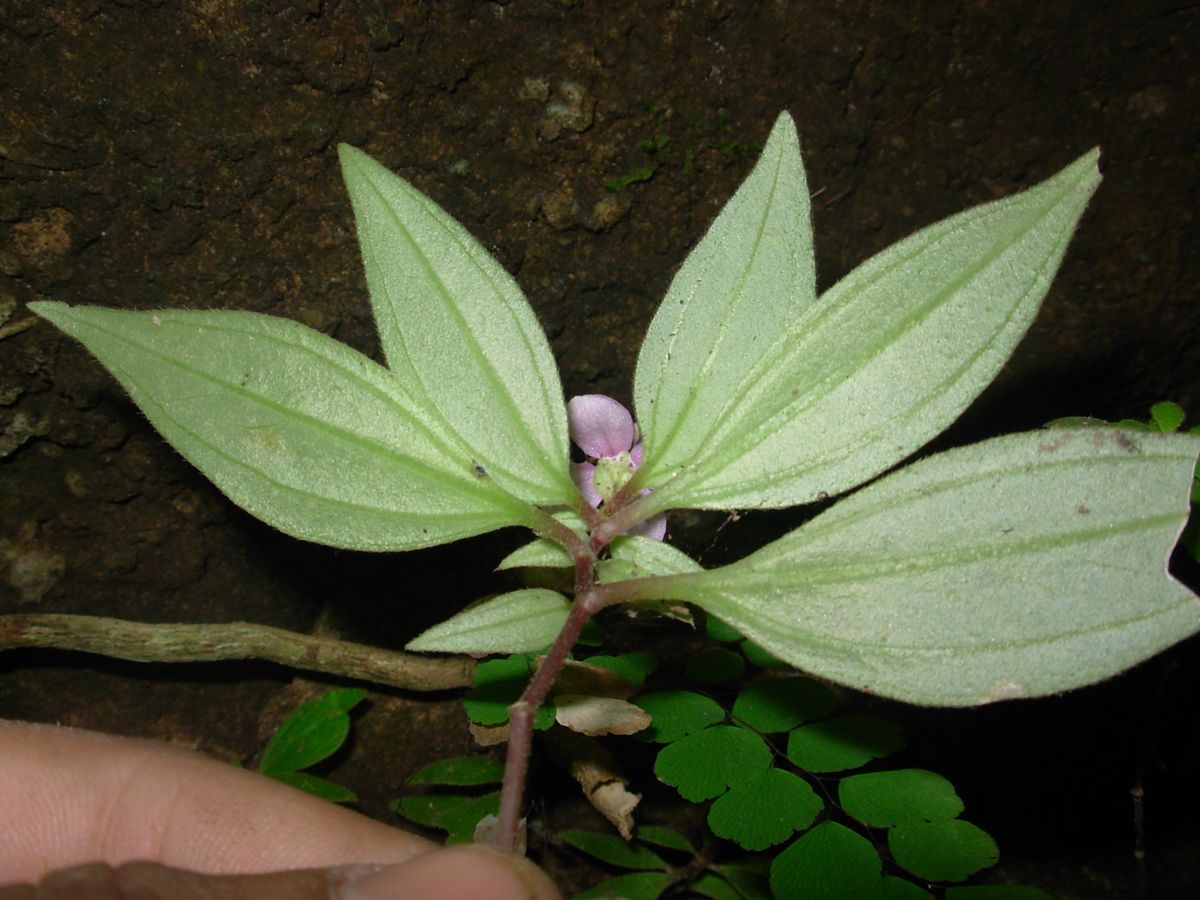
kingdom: Plantae
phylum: Tracheophyta
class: Magnoliopsida
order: Myrtales
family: Melastomataceae
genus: Centradenia
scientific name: Centradenia floribunda
